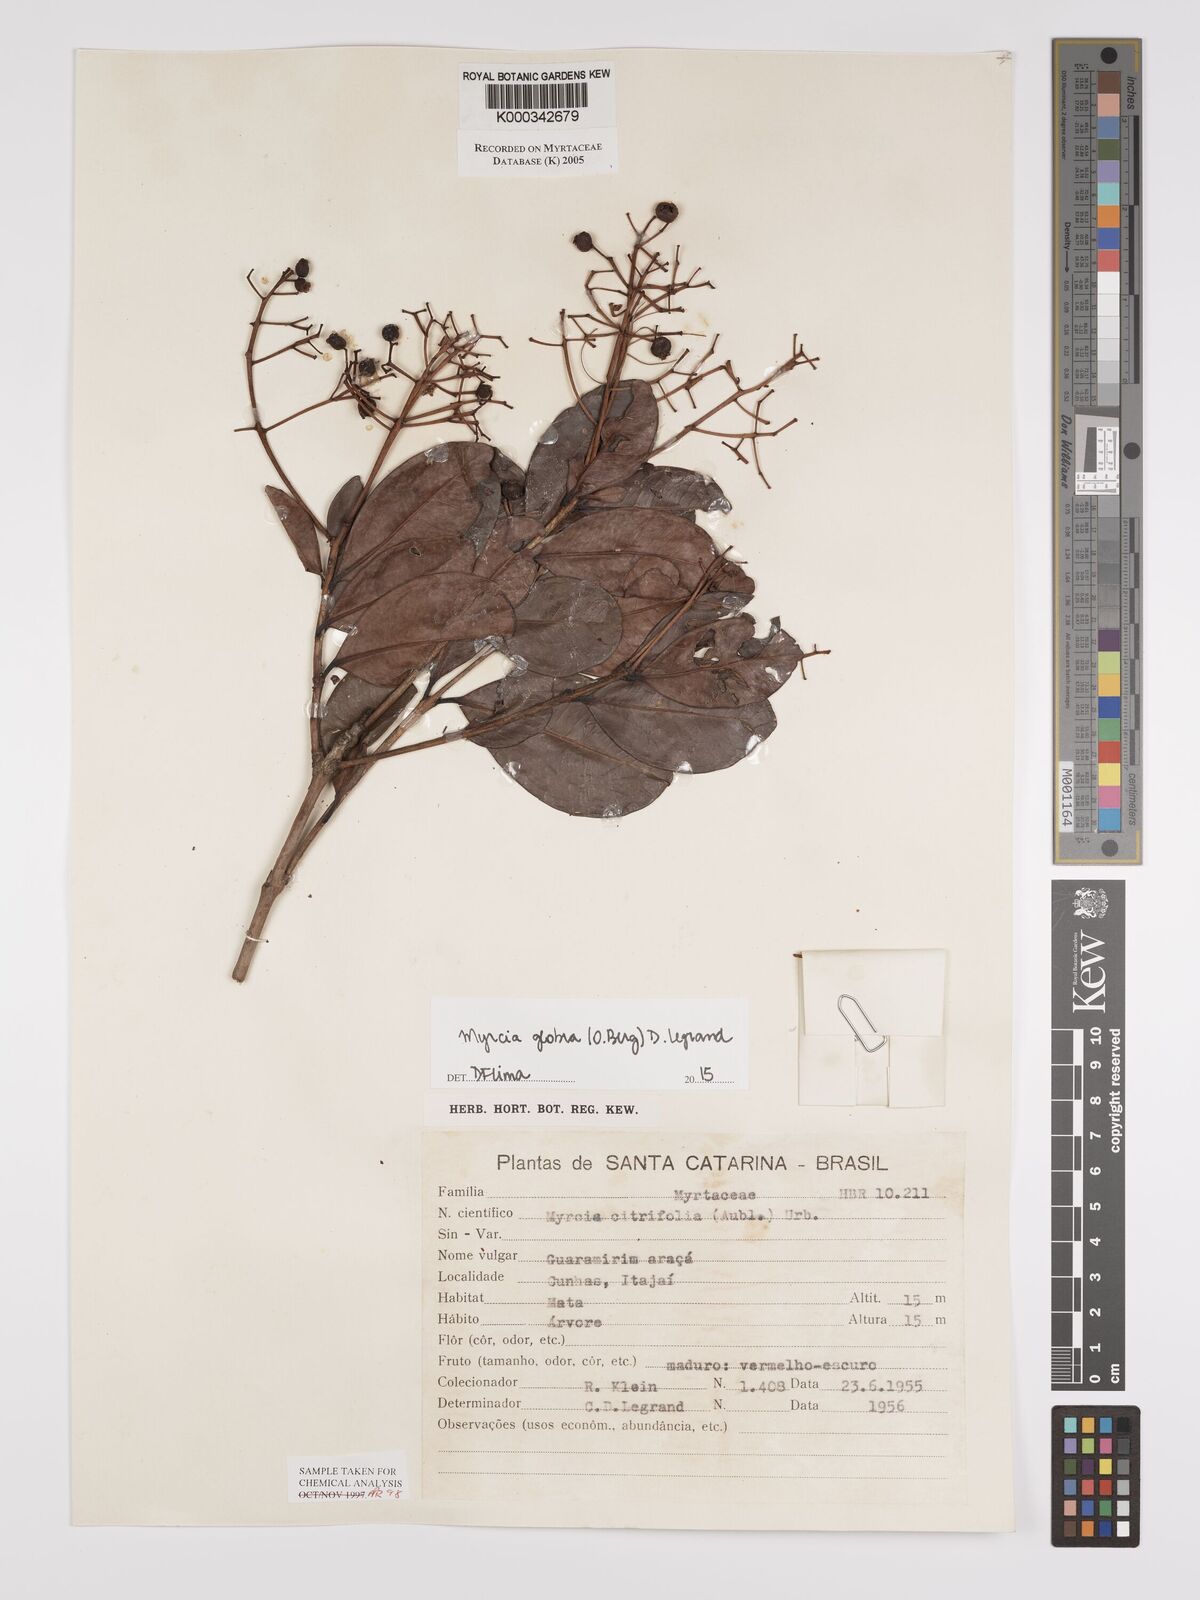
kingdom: Plantae
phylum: Tracheophyta
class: Magnoliopsida
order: Myrtales
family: Myrtaceae
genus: Myrcia
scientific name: Myrcia guianensis
